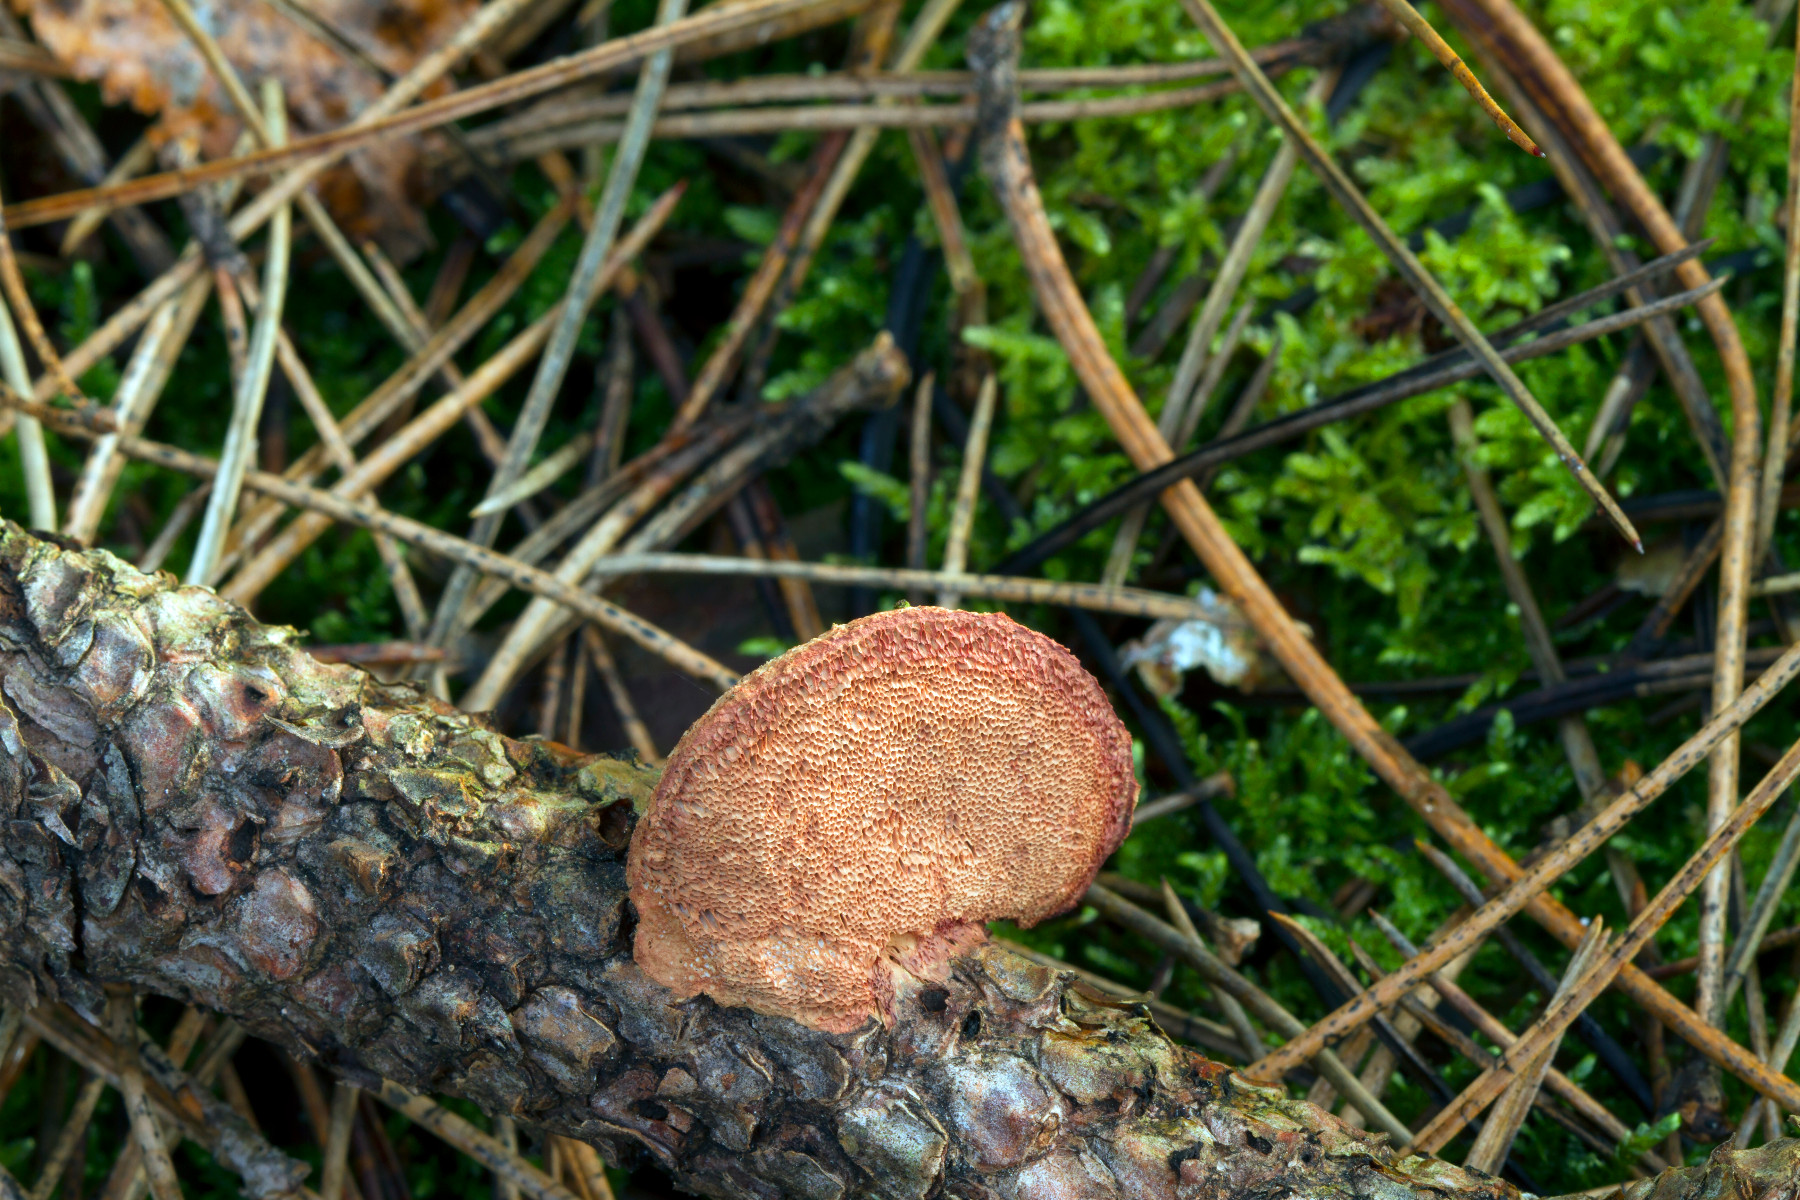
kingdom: Fungi
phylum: Basidiomycota
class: Agaricomycetes
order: Polyporales
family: Phanerochaetaceae
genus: Hapalopilus
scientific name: Hapalopilus rutilans
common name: rødlig okkerporesvamp
